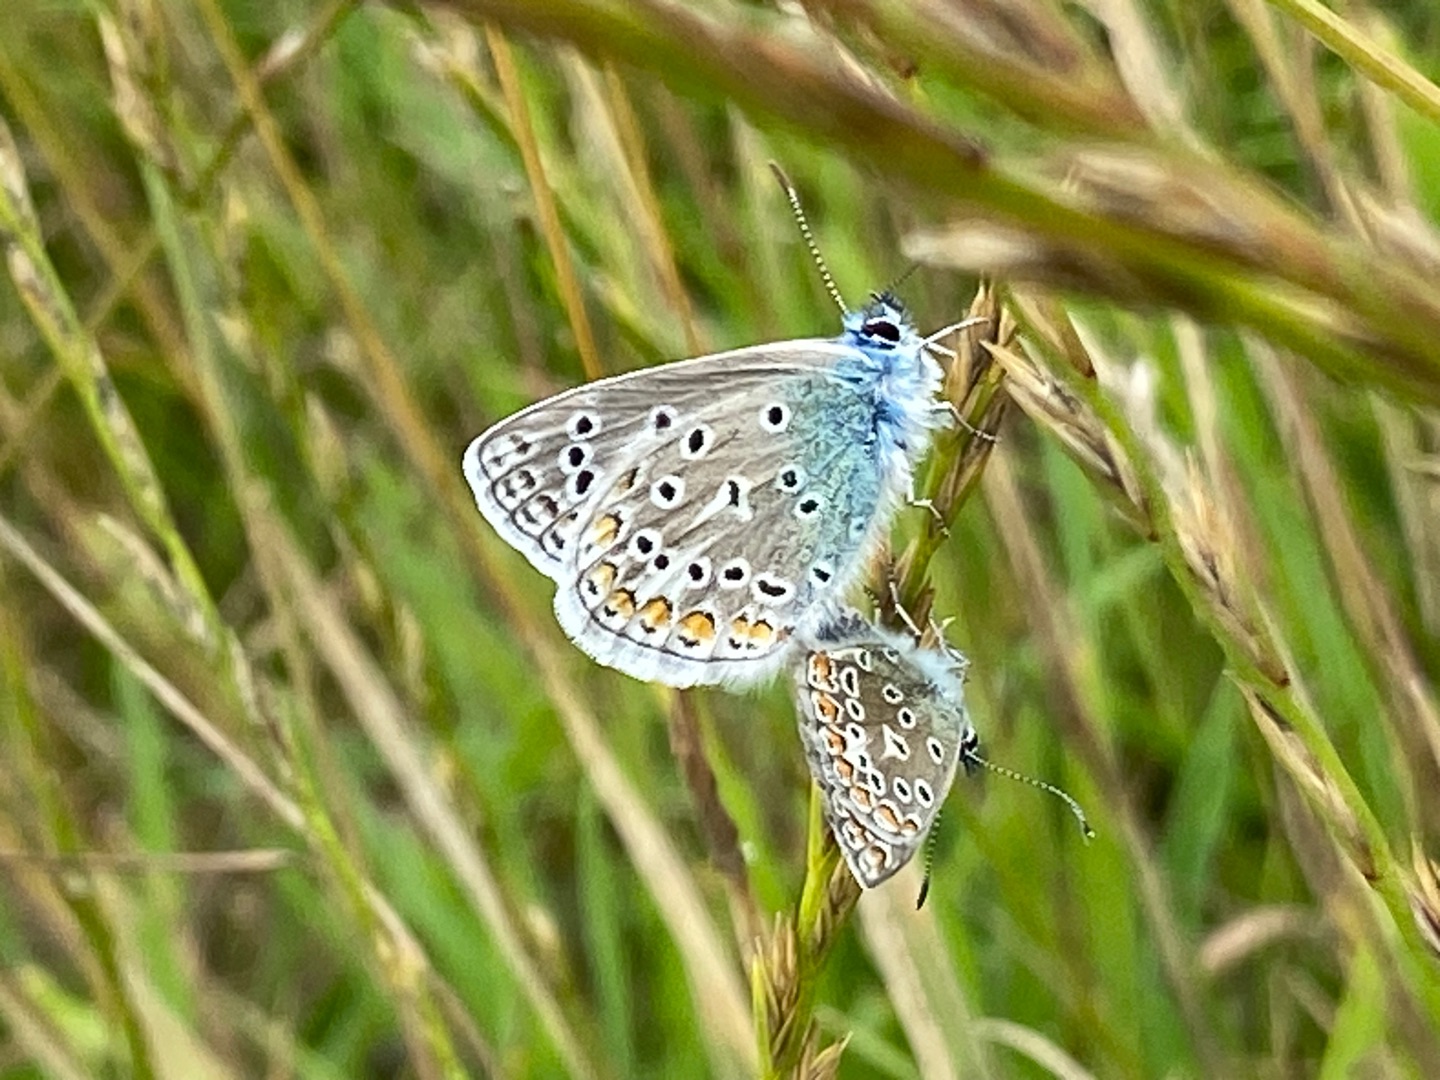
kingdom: Animalia
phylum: Arthropoda
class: Insecta
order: Lepidoptera
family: Lycaenidae
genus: Polyommatus
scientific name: Polyommatus icarus
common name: Almindelig blåfugl
